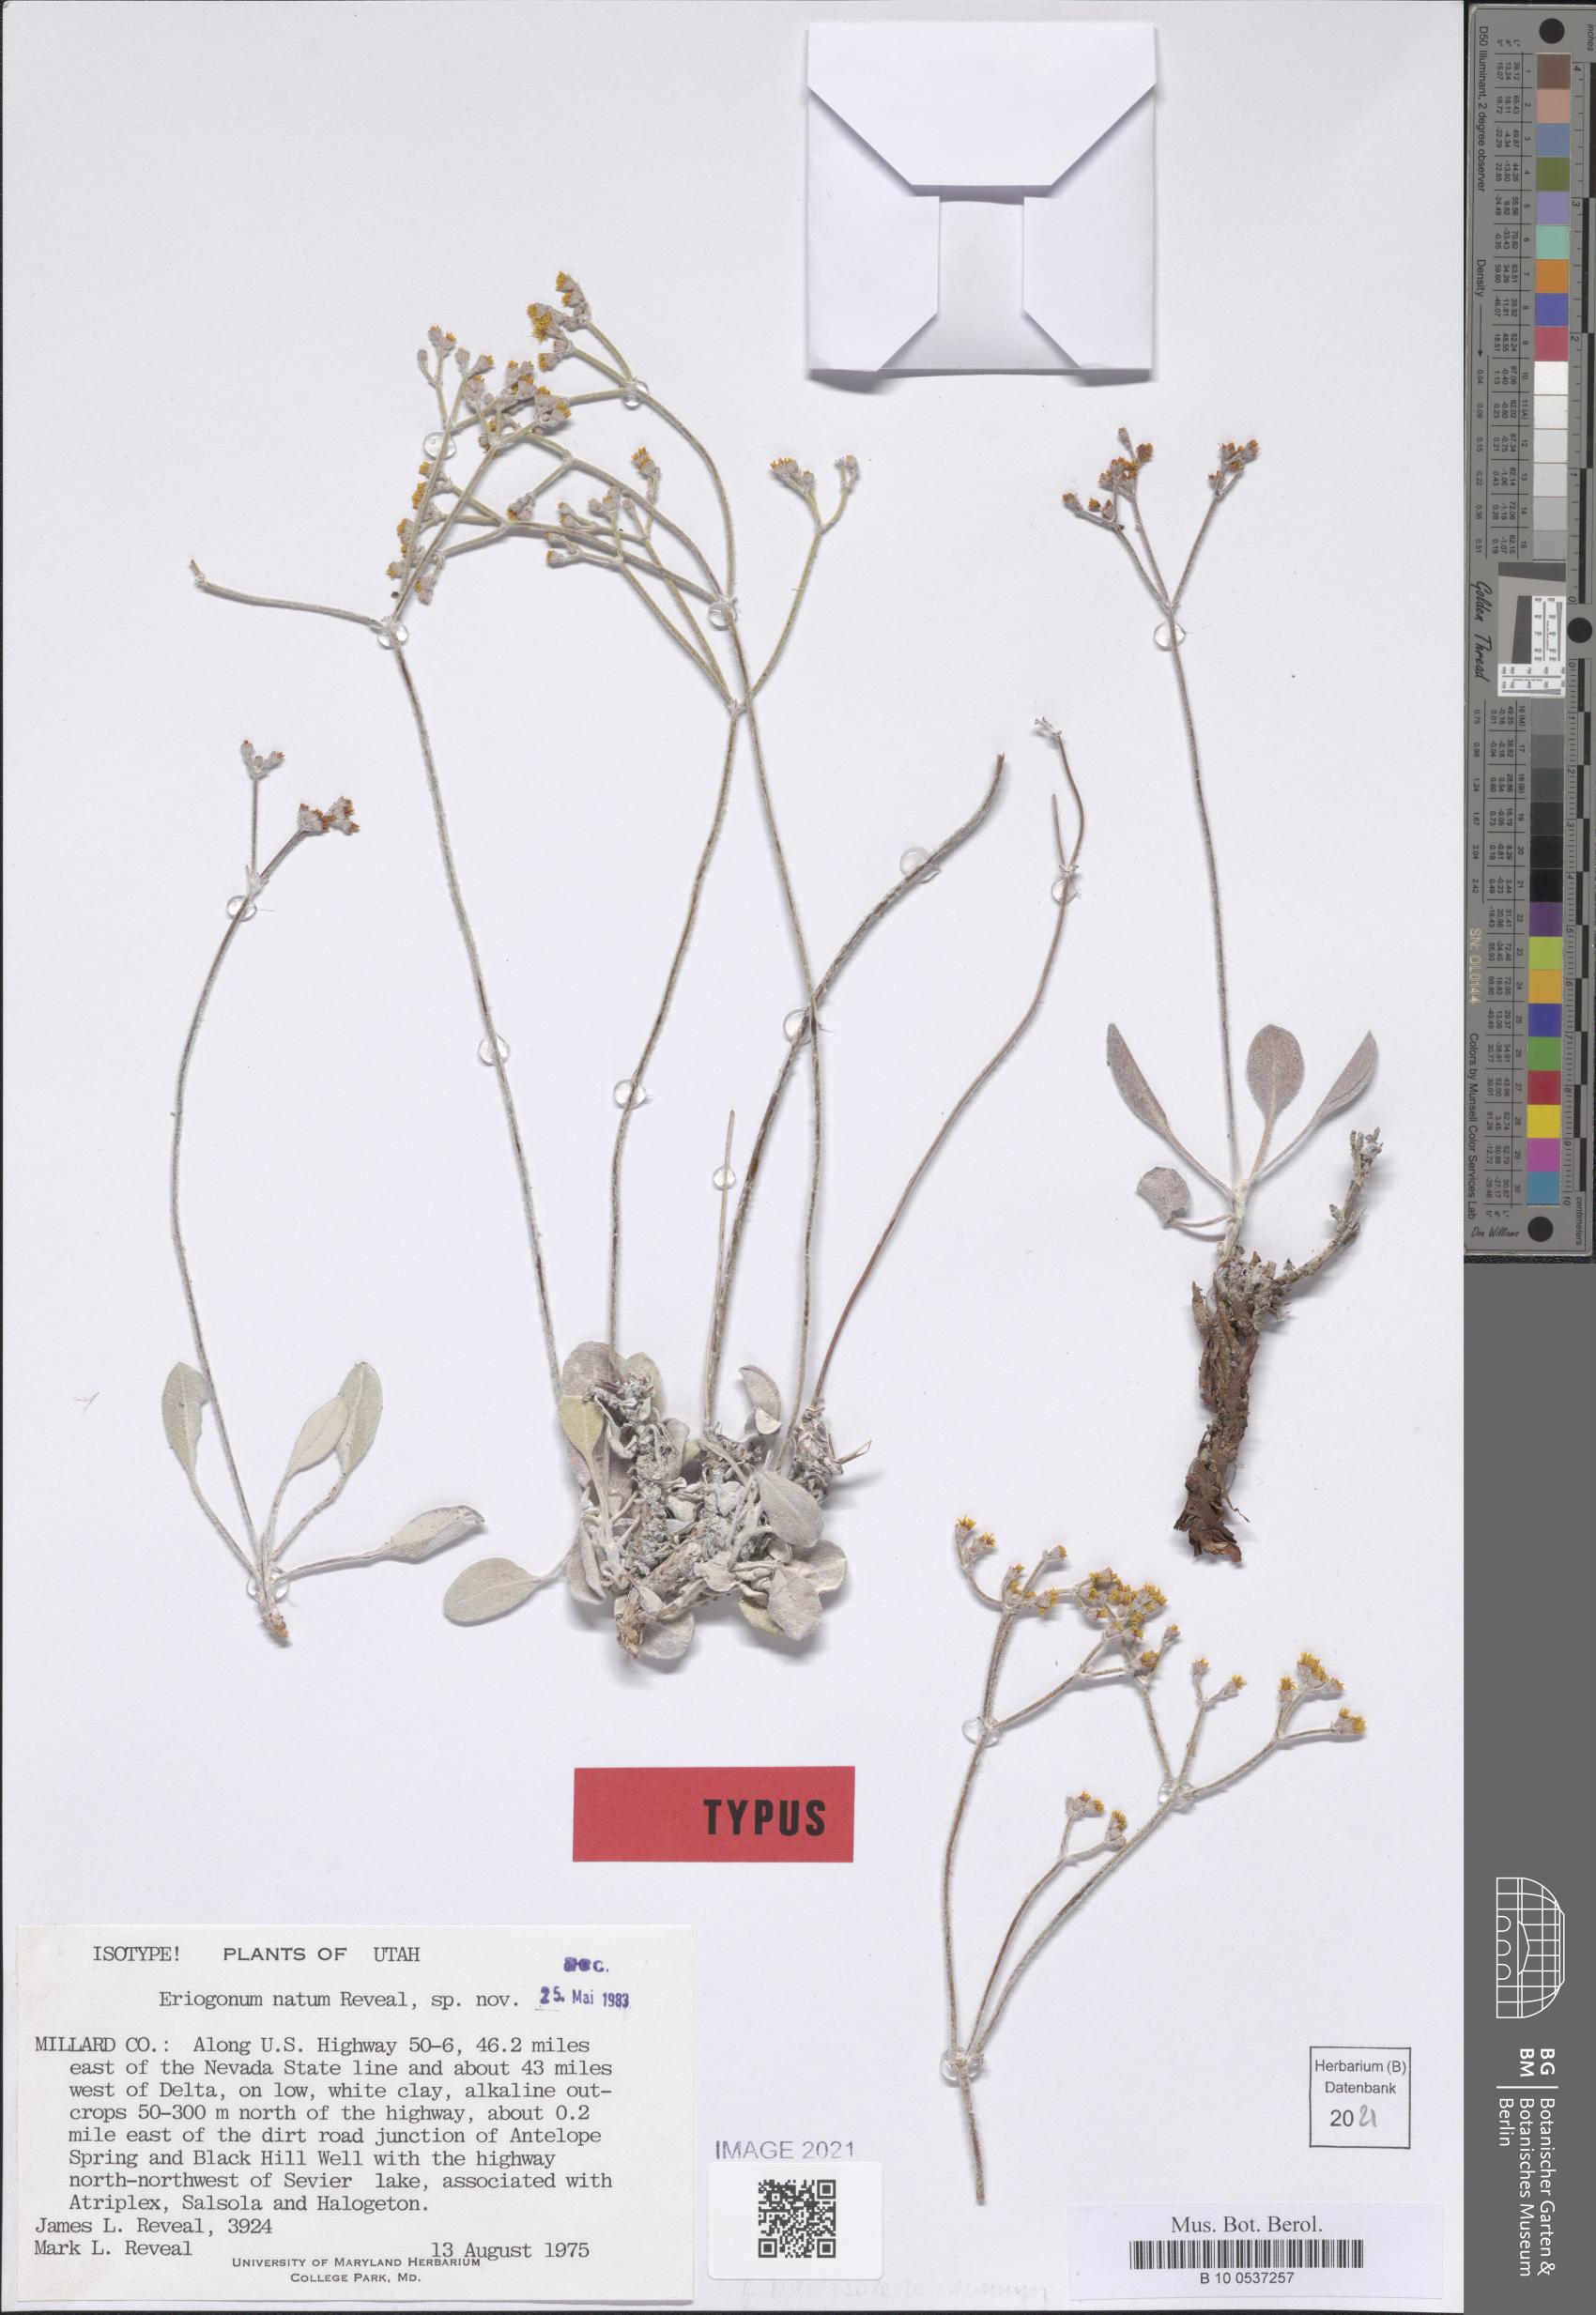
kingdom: Plantae
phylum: Tracheophyta
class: Magnoliopsida
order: Caryophyllales
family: Polygonaceae
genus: Eriogonum
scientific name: Eriogonum natum
